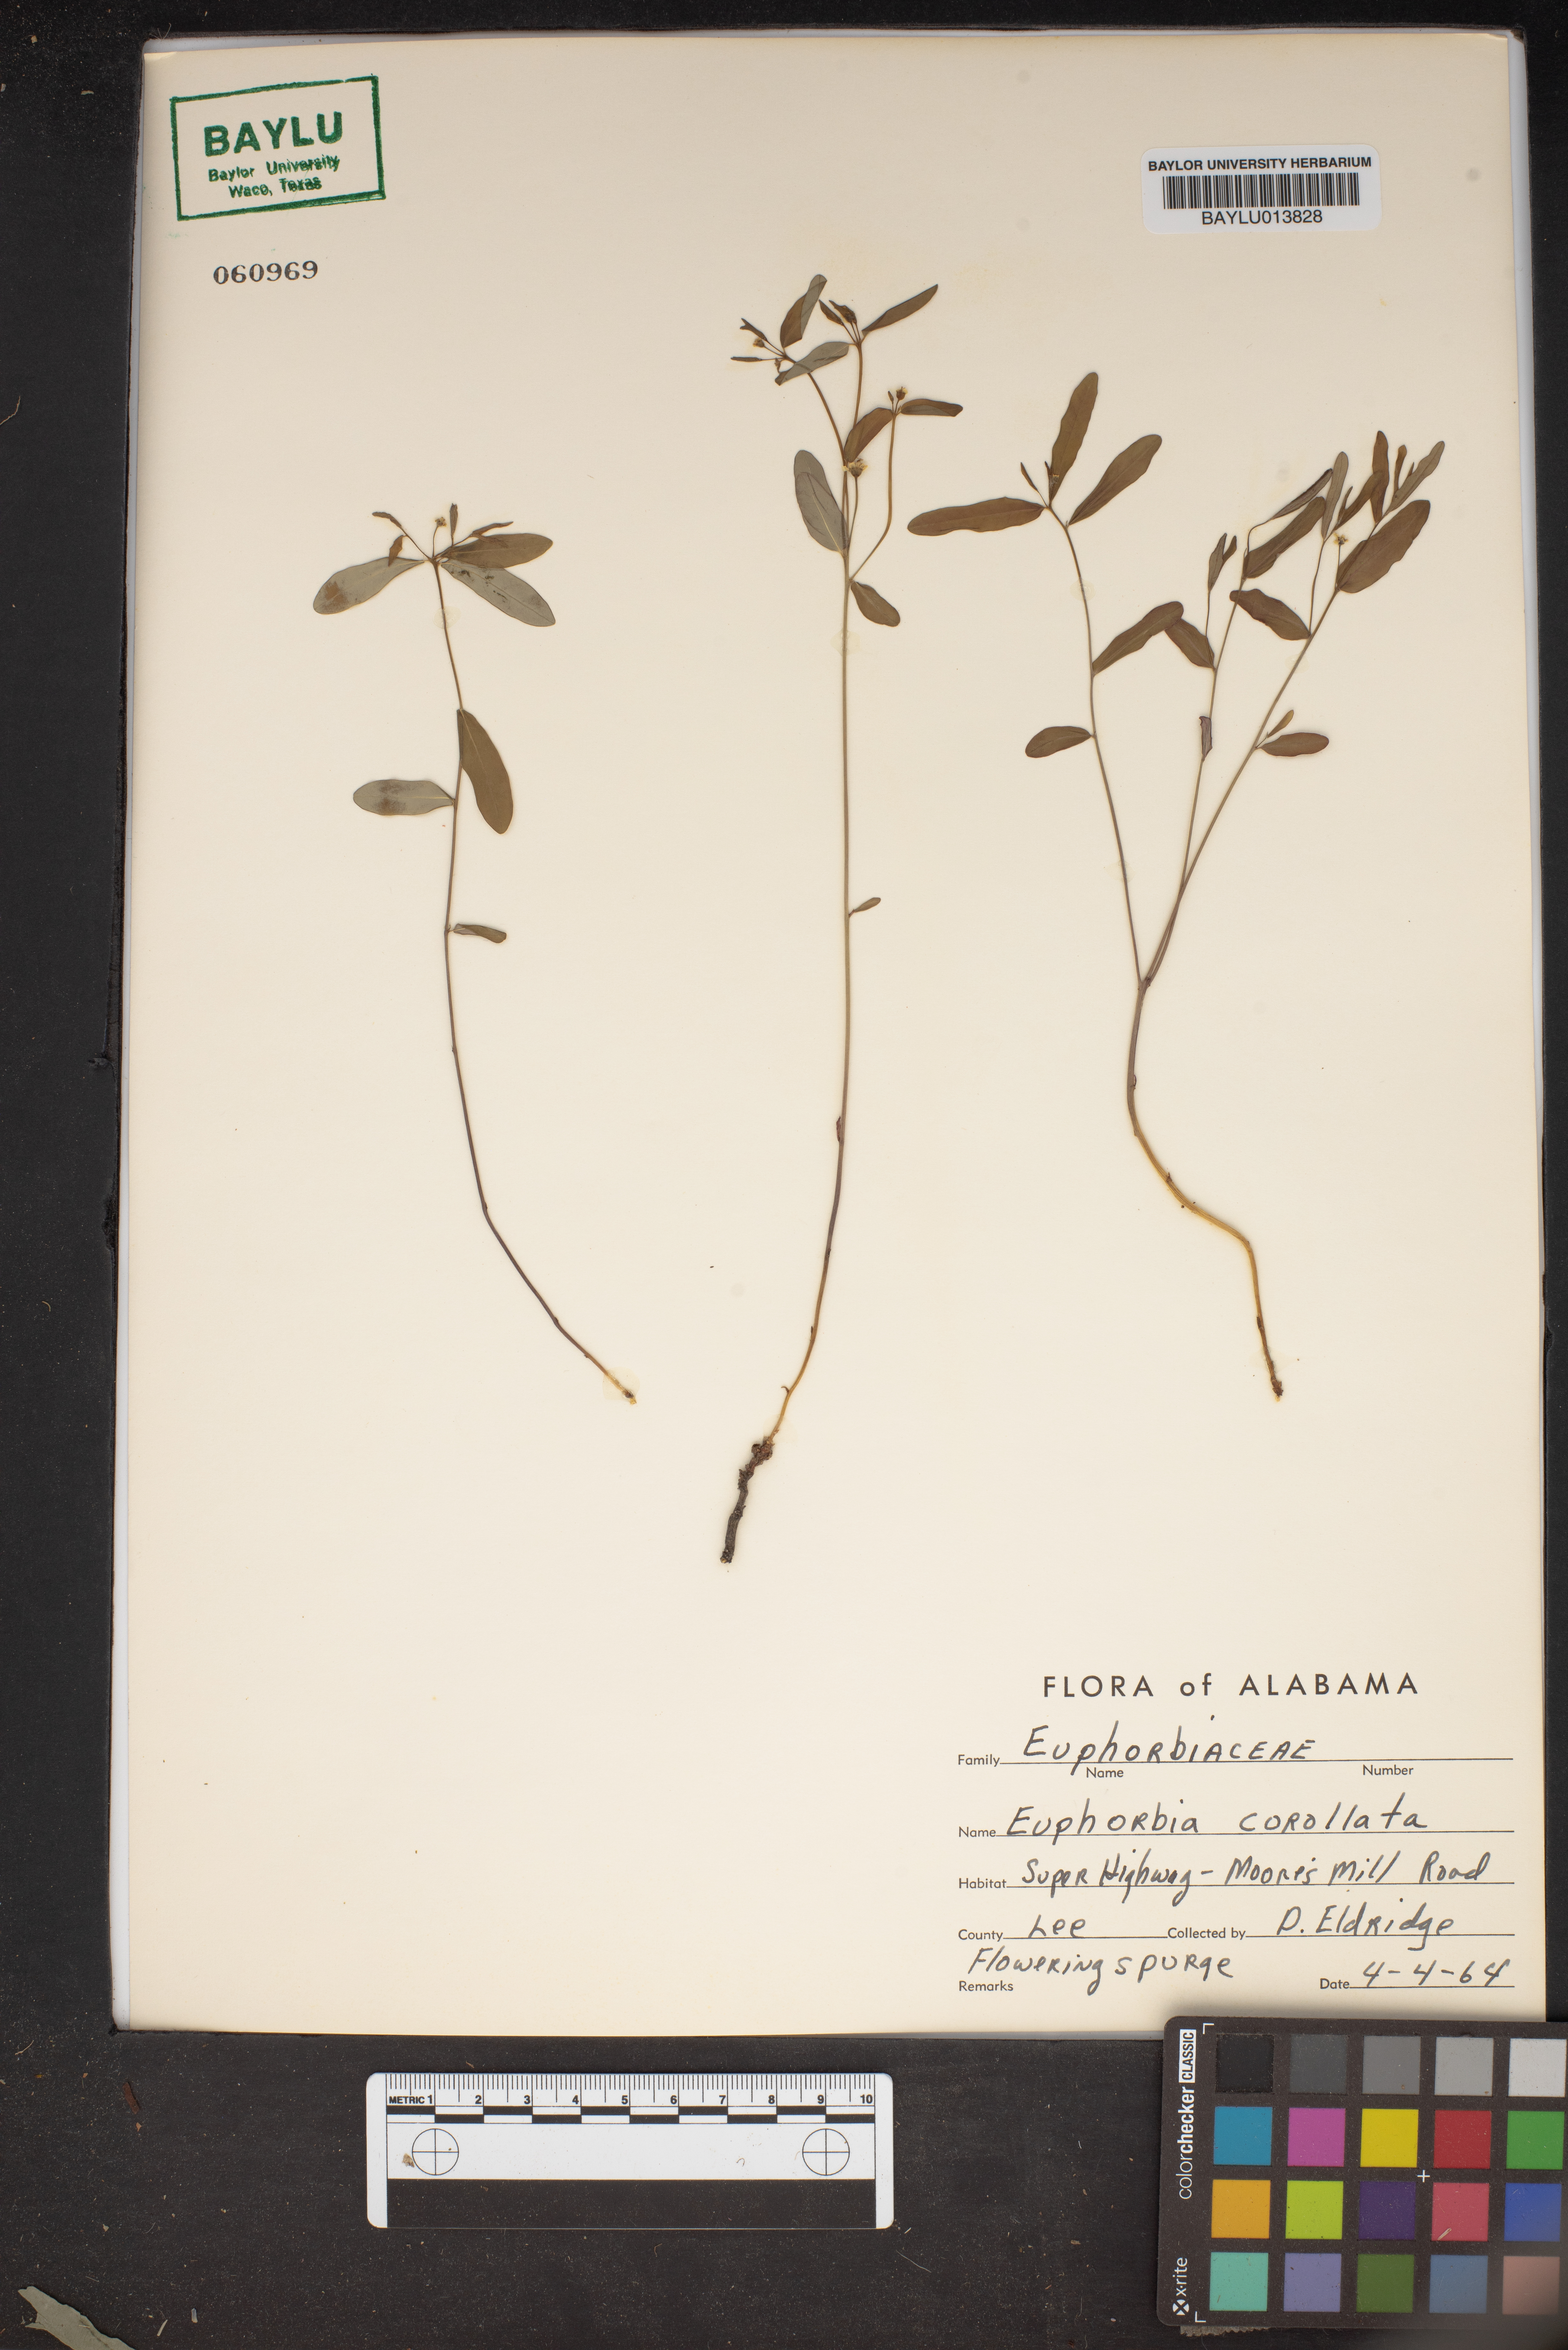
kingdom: Plantae
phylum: Tracheophyta
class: Magnoliopsida
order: Malpighiales
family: Euphorbiaceae
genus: Euphorbia
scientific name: Euphorbia corollata
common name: Flowering spurge
